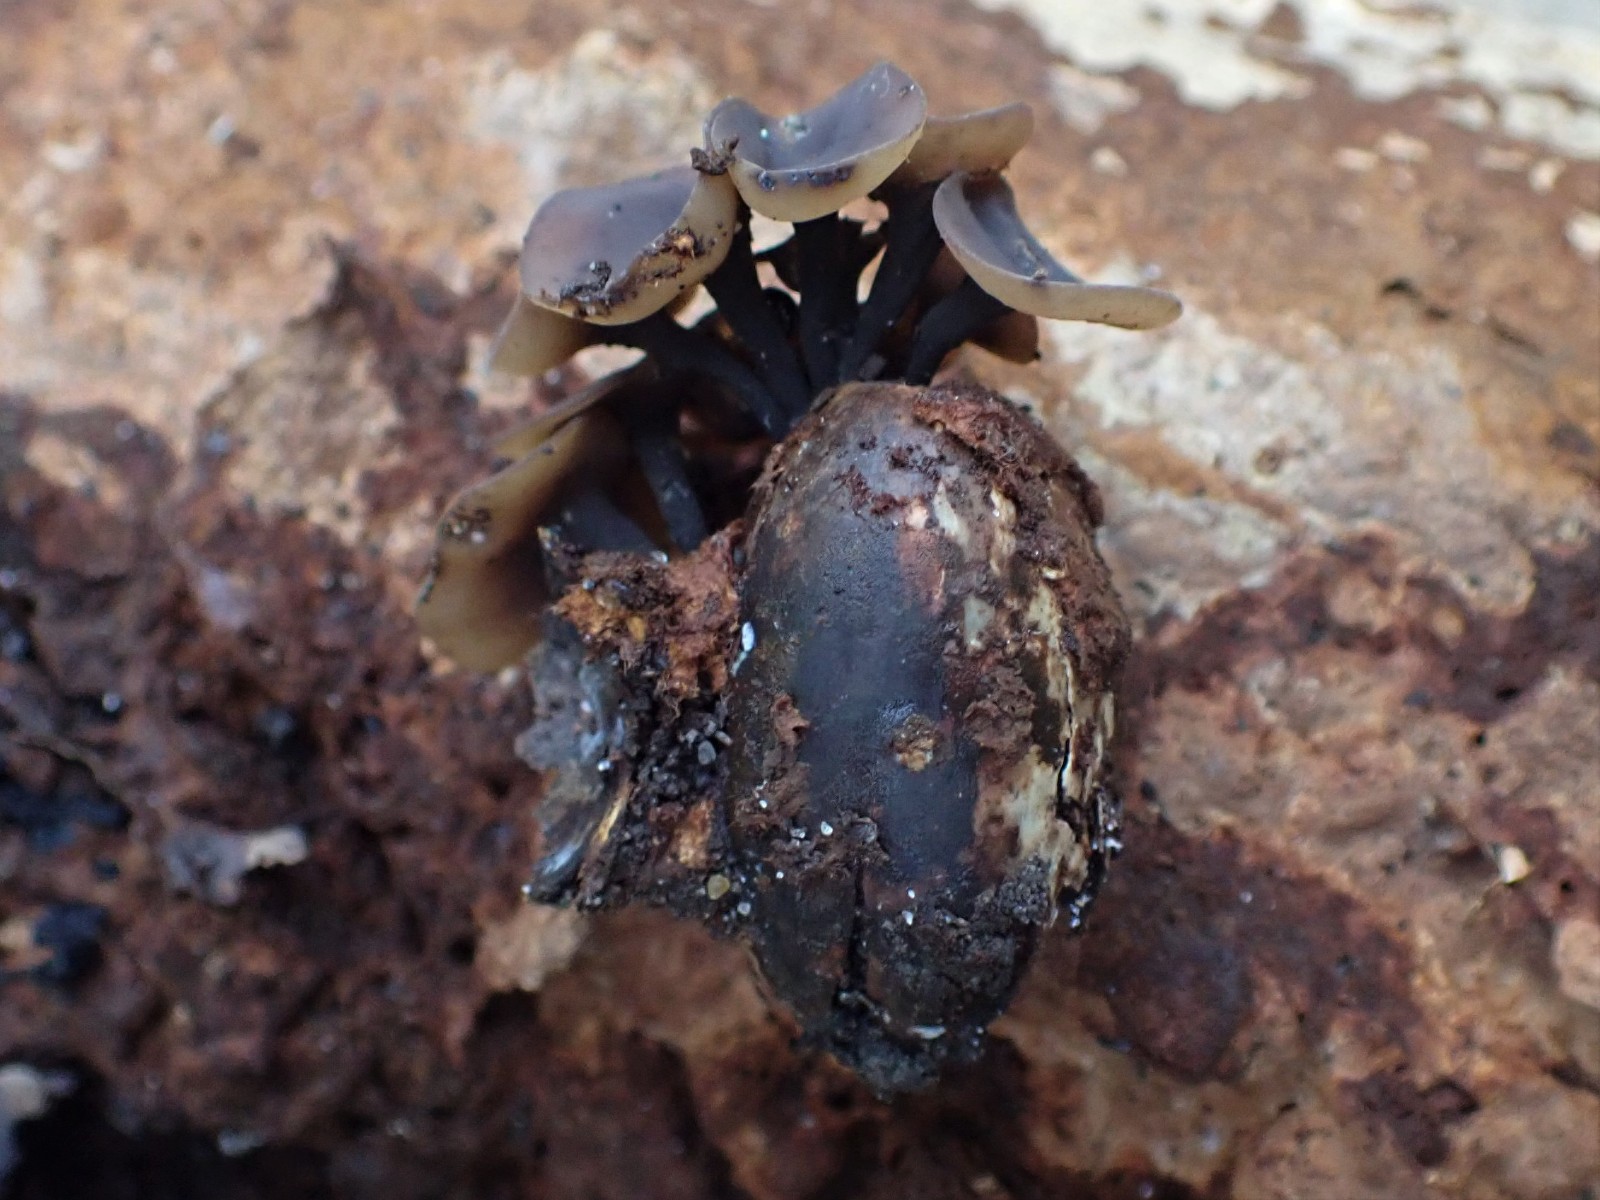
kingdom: Fungi
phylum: Ascomycota
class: Leotiomycetes
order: Helotiales
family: Sclerotiniaceae
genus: Ciboria
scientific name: Ciboria batschiana
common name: agern-knoldskive
